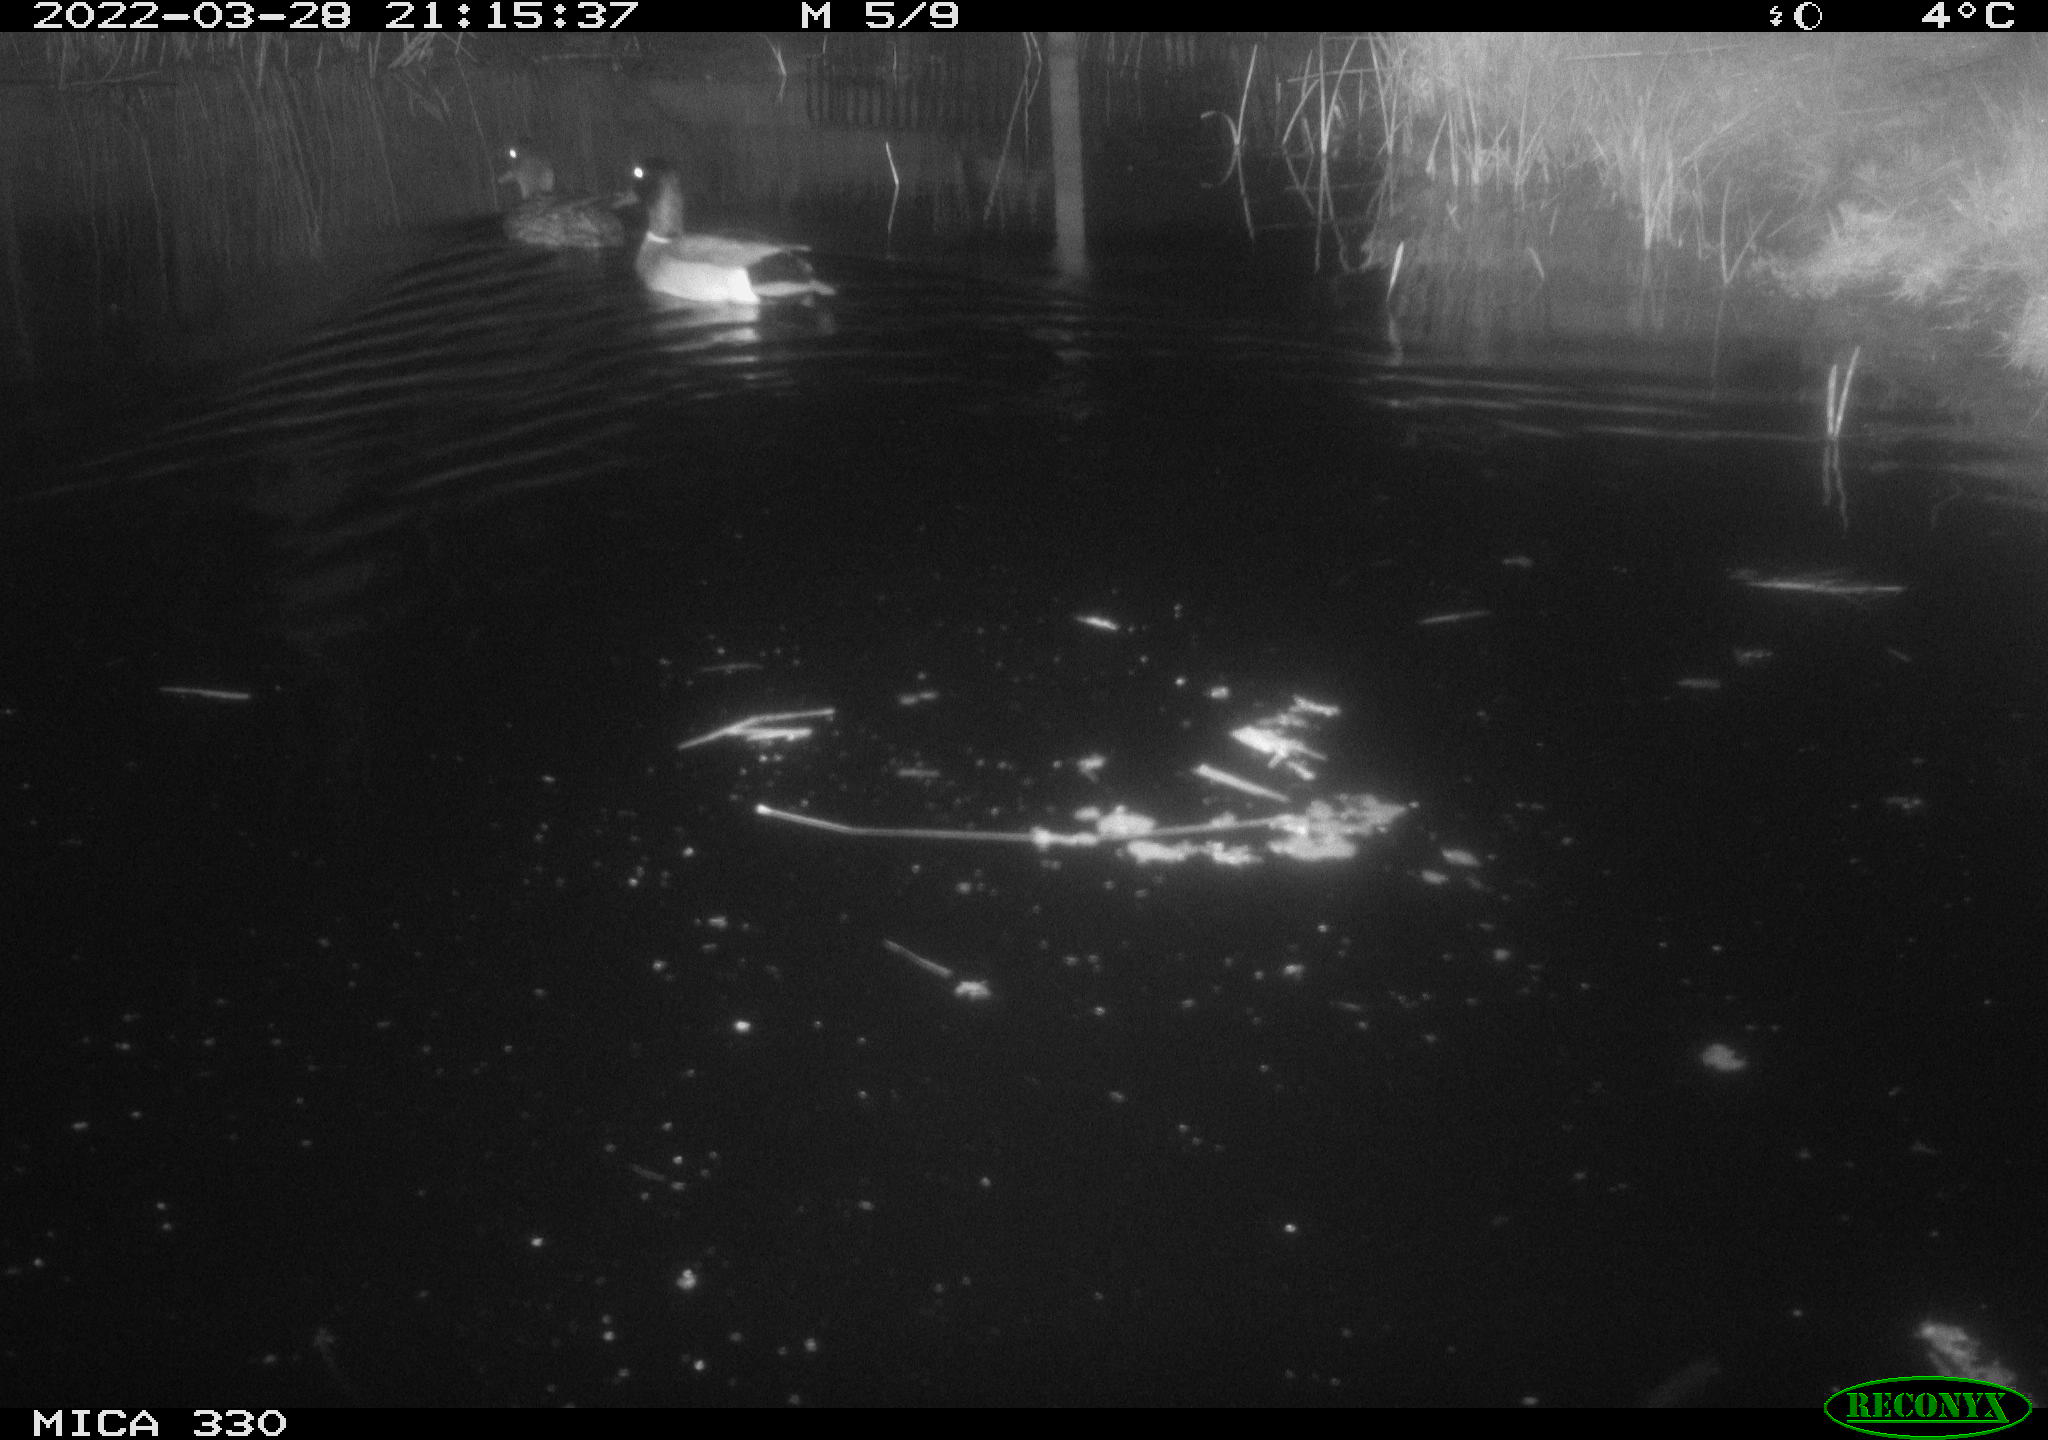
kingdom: Animalia
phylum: Chordata
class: Aves
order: Anseriformes
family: Anatidae
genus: Anas
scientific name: Anas platyrhynchos
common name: Mallard
